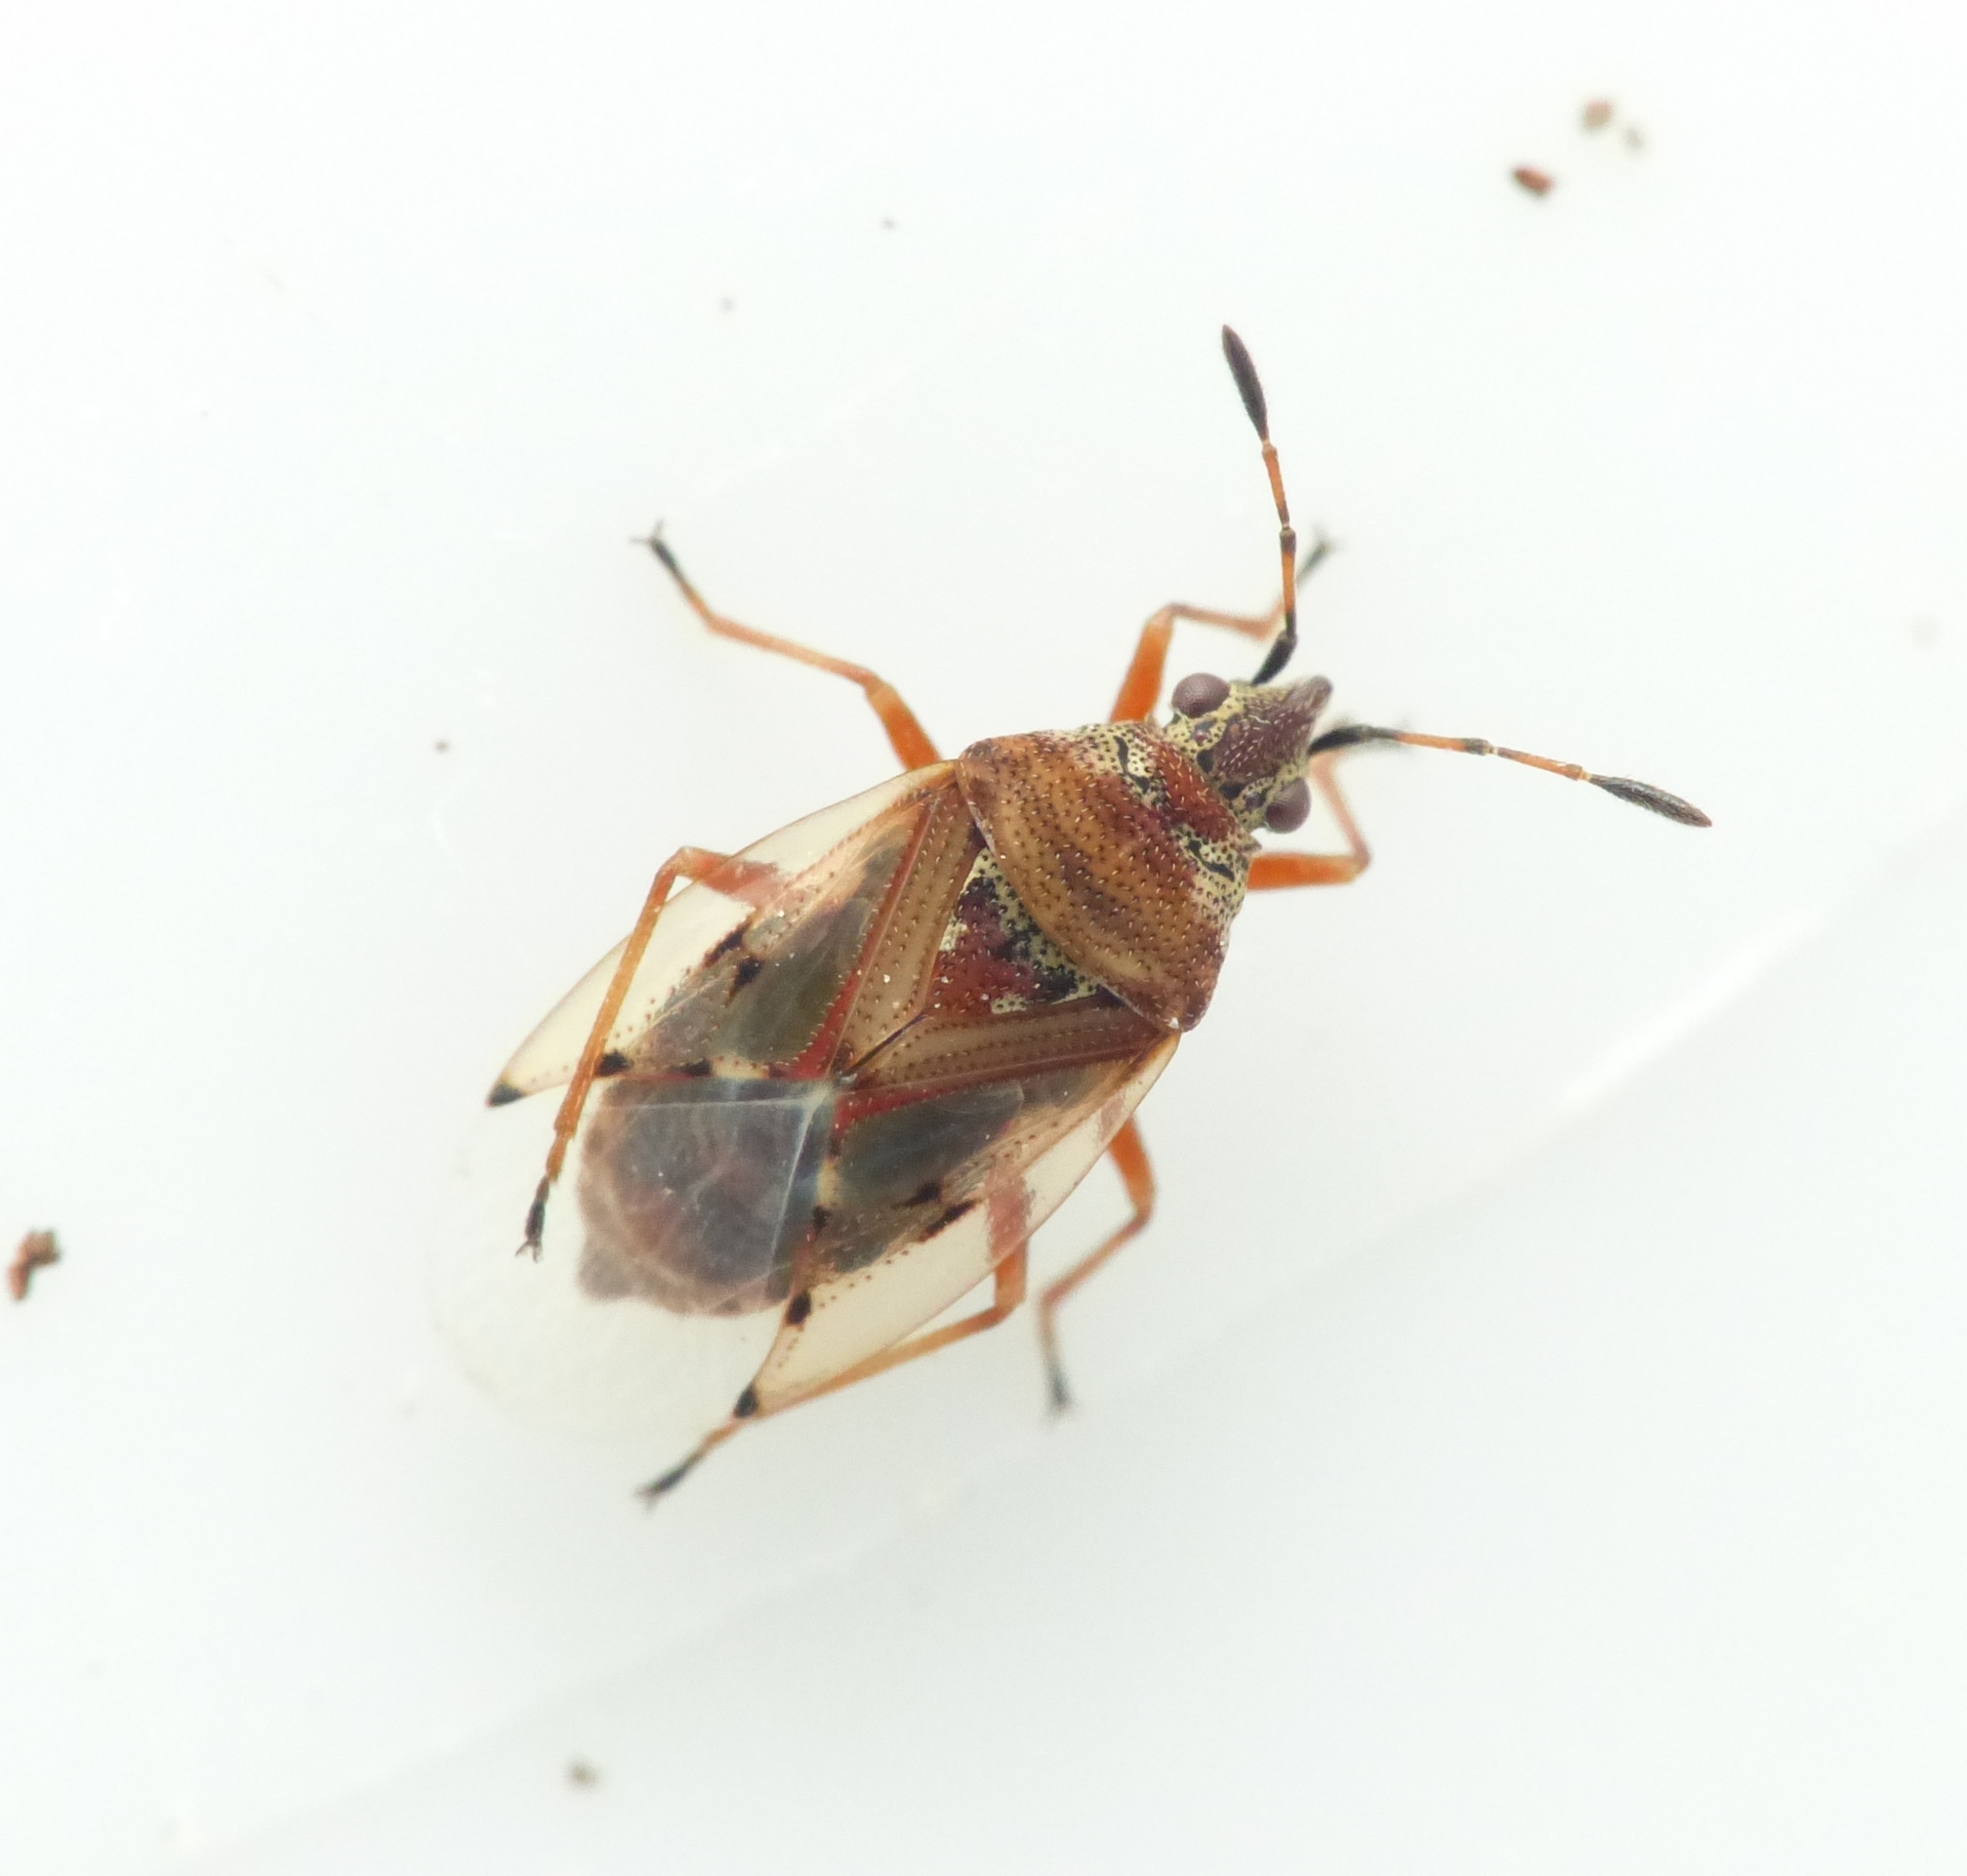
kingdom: Animalia
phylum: Arthropoda
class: Insecta
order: Hemiptera
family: Lygaeidae
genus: Kleidocerys
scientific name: Kleidocerys resedae
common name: Birkefrøtæge
